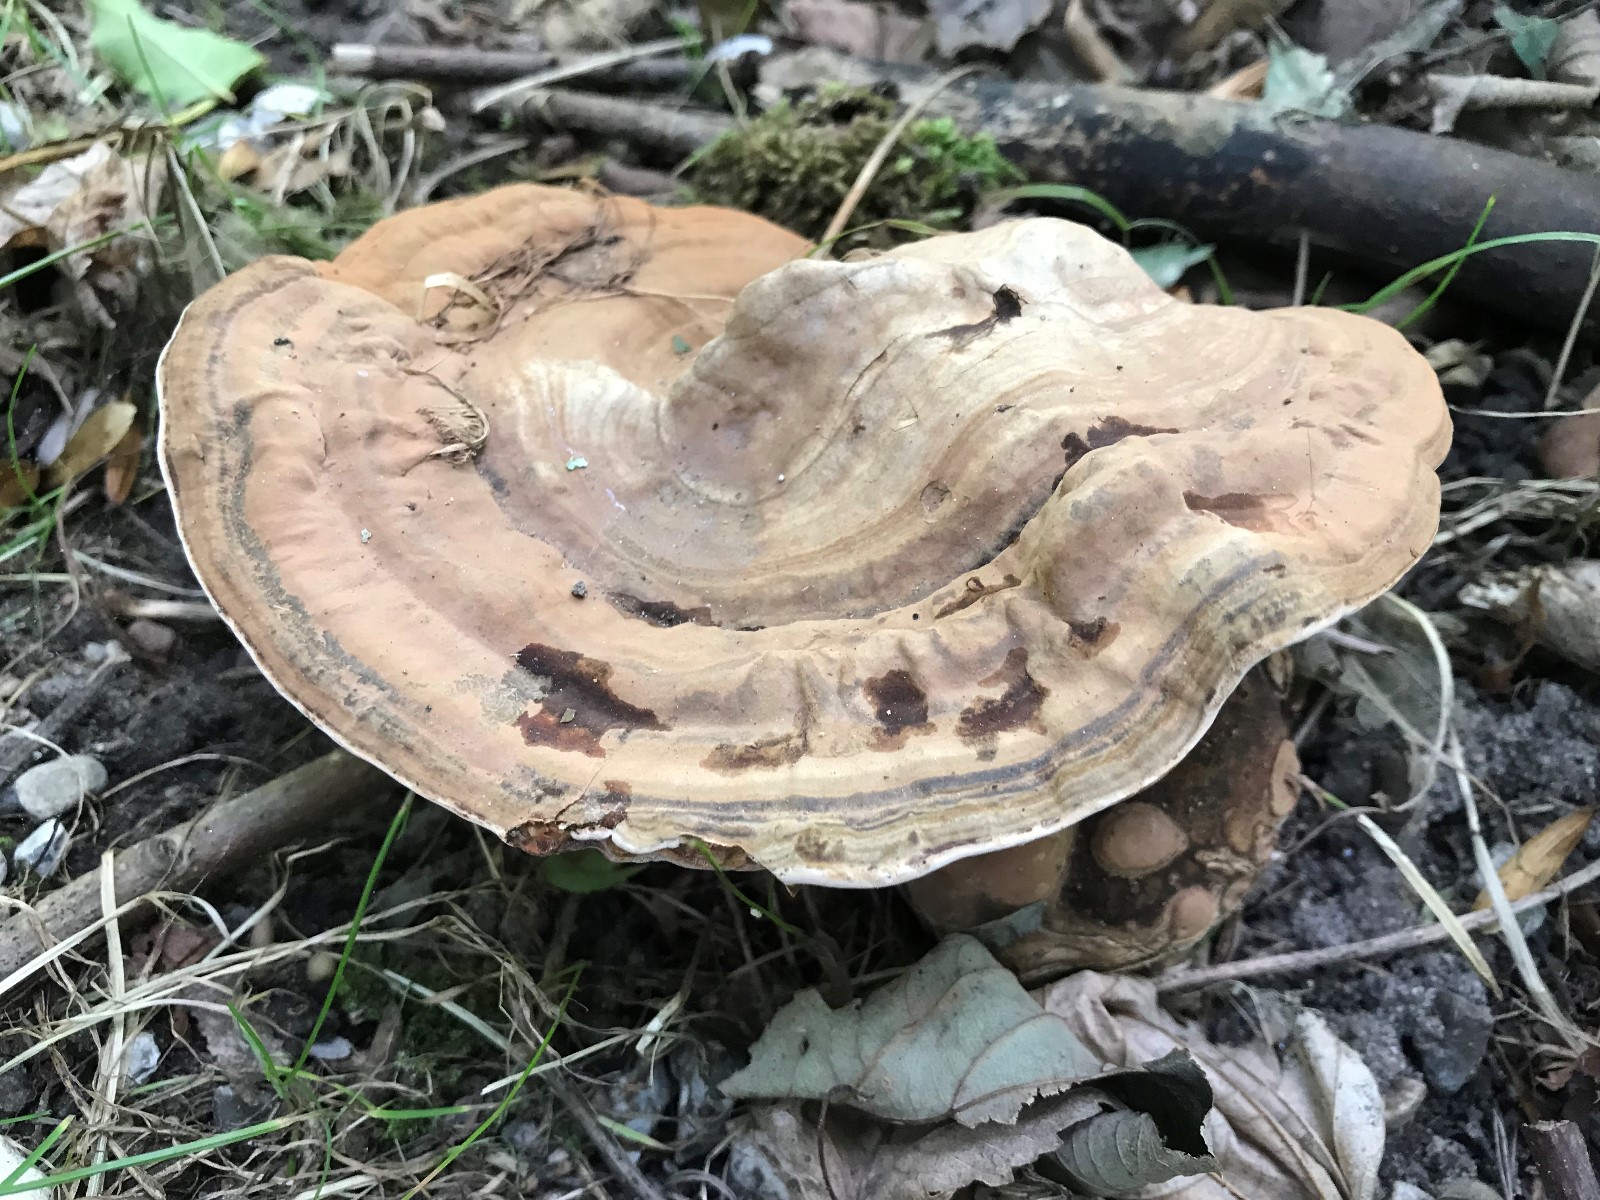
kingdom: Fungi
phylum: Basidiomycota
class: Agaricomycetes
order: Polyporales
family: Polyporaceae
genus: Ganoderma
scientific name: Ganoderma applanatum
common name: flad lakporesvamp
